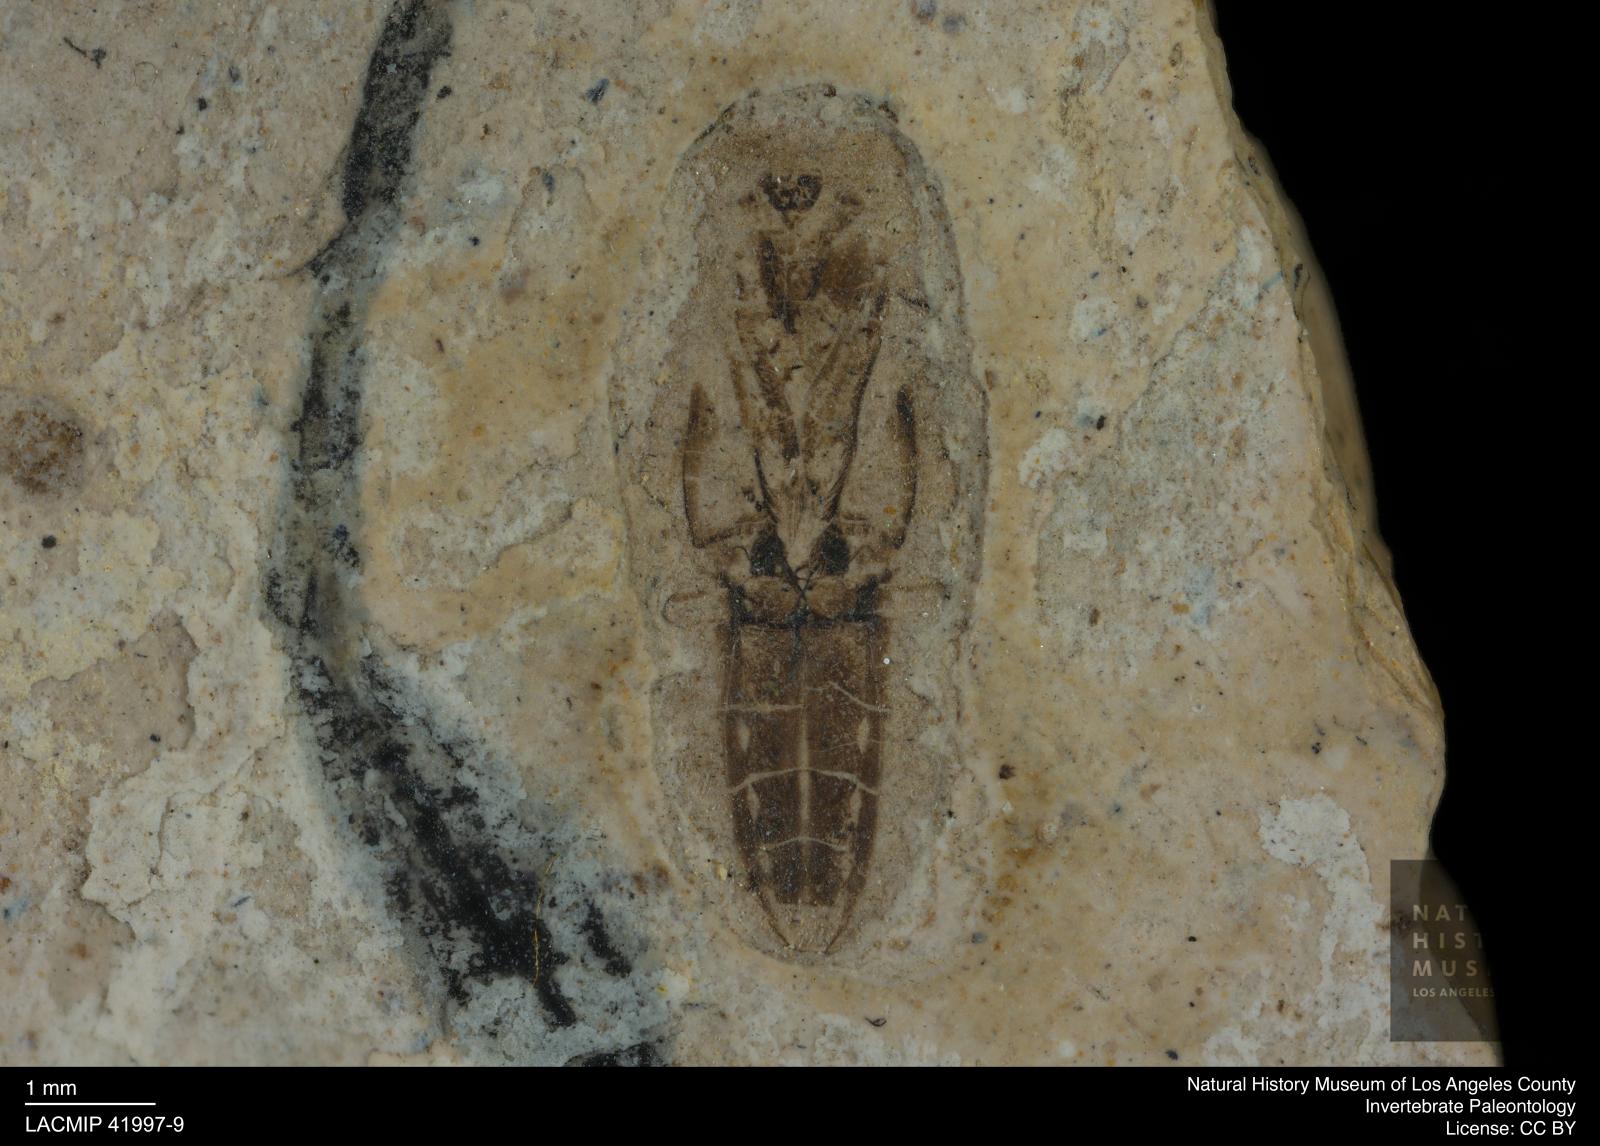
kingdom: Animalia
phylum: Arthropoda
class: Insecta
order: Hemiptera
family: Notonectidae
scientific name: Notonectidae
